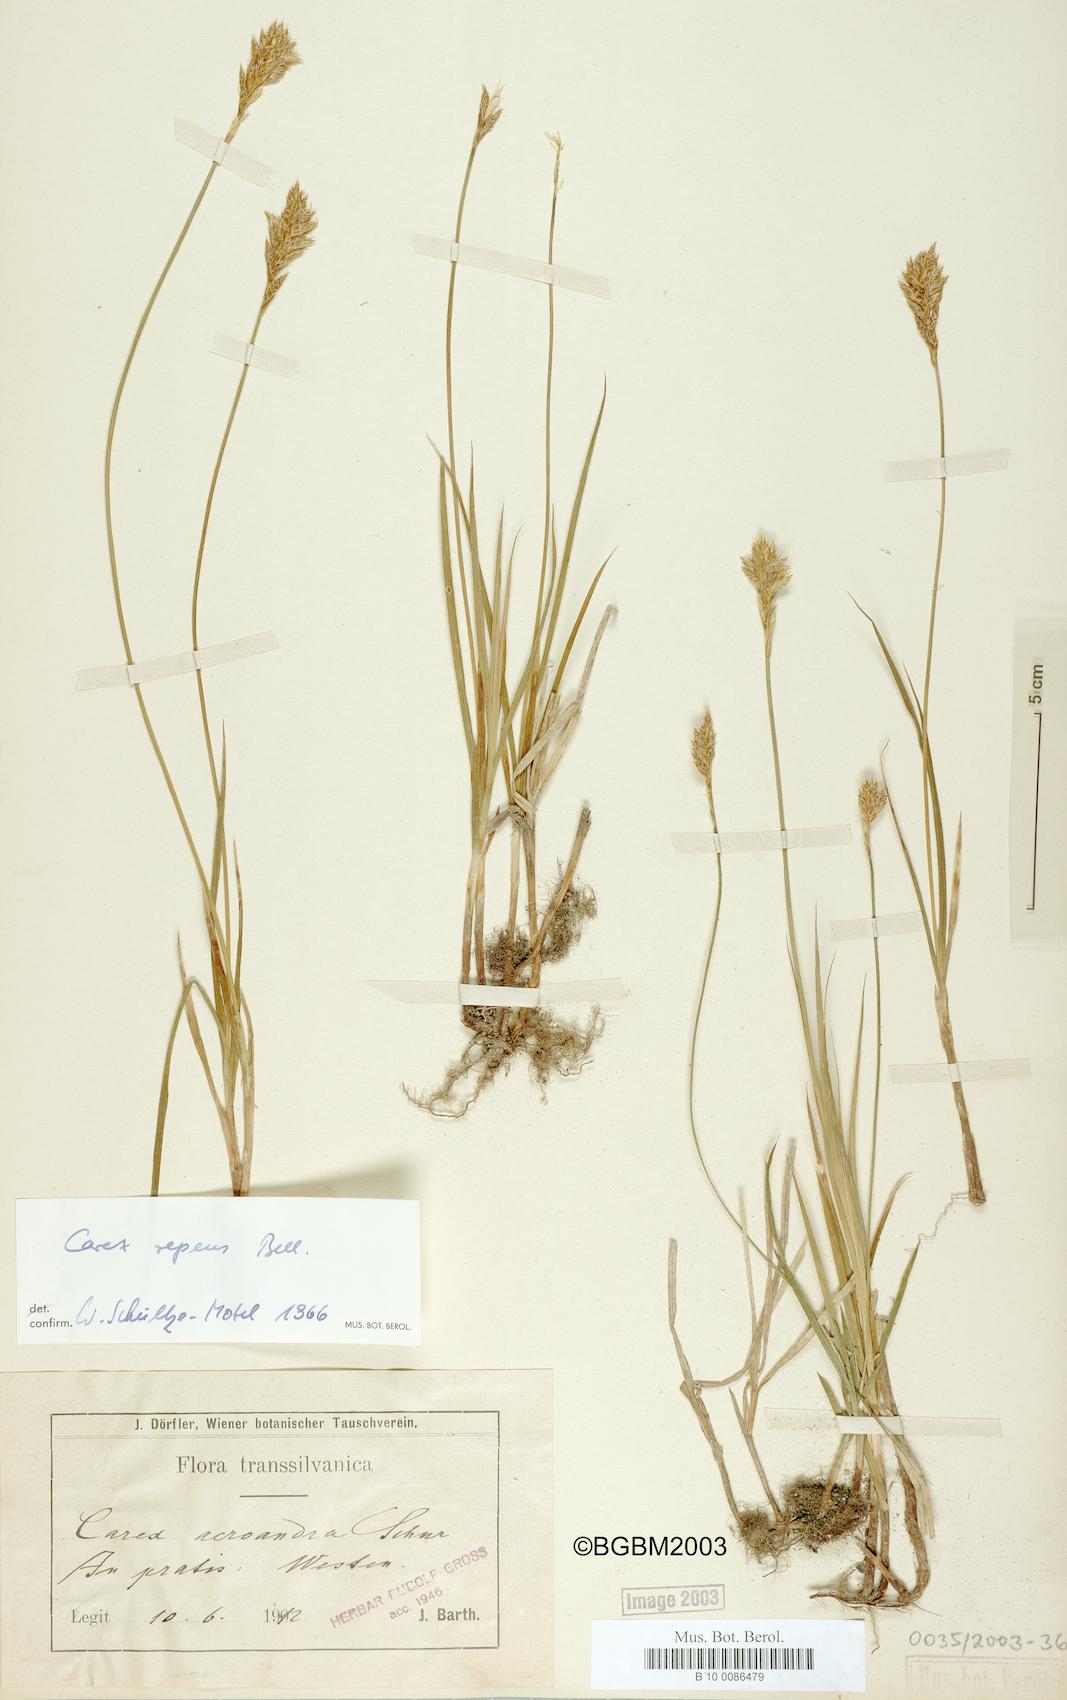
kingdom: Plantae
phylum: Tracheophyta
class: Liliopsida
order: Poales
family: Cyperaceae
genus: Carex
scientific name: Carex repens
